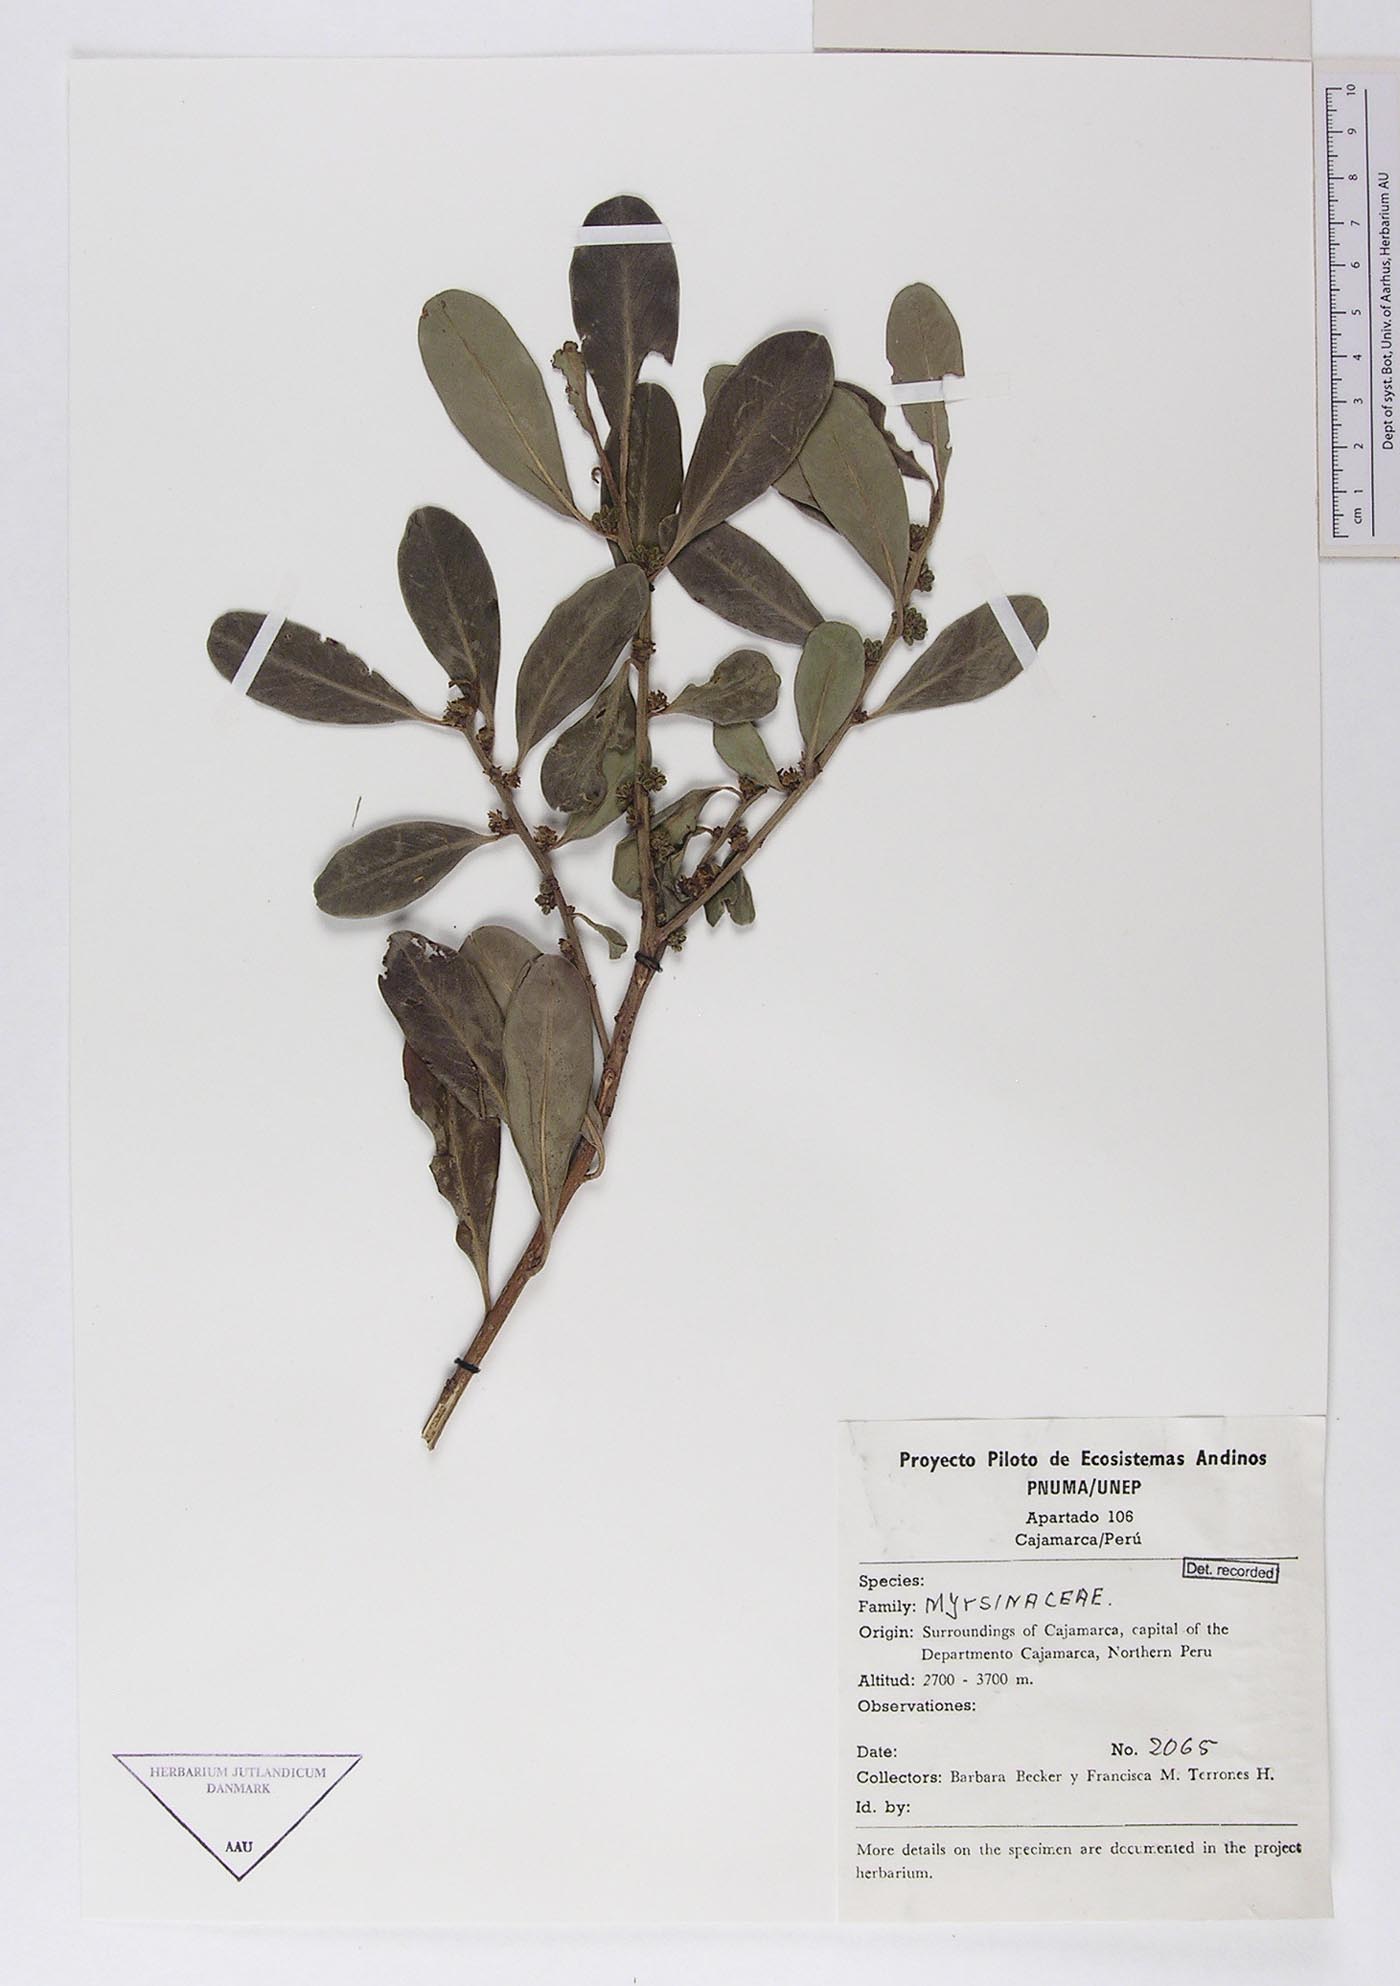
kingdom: Plantae
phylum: Tracheophyta
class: Magnoliopsida
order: Ericales
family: Primulaceae
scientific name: Primulaceae
